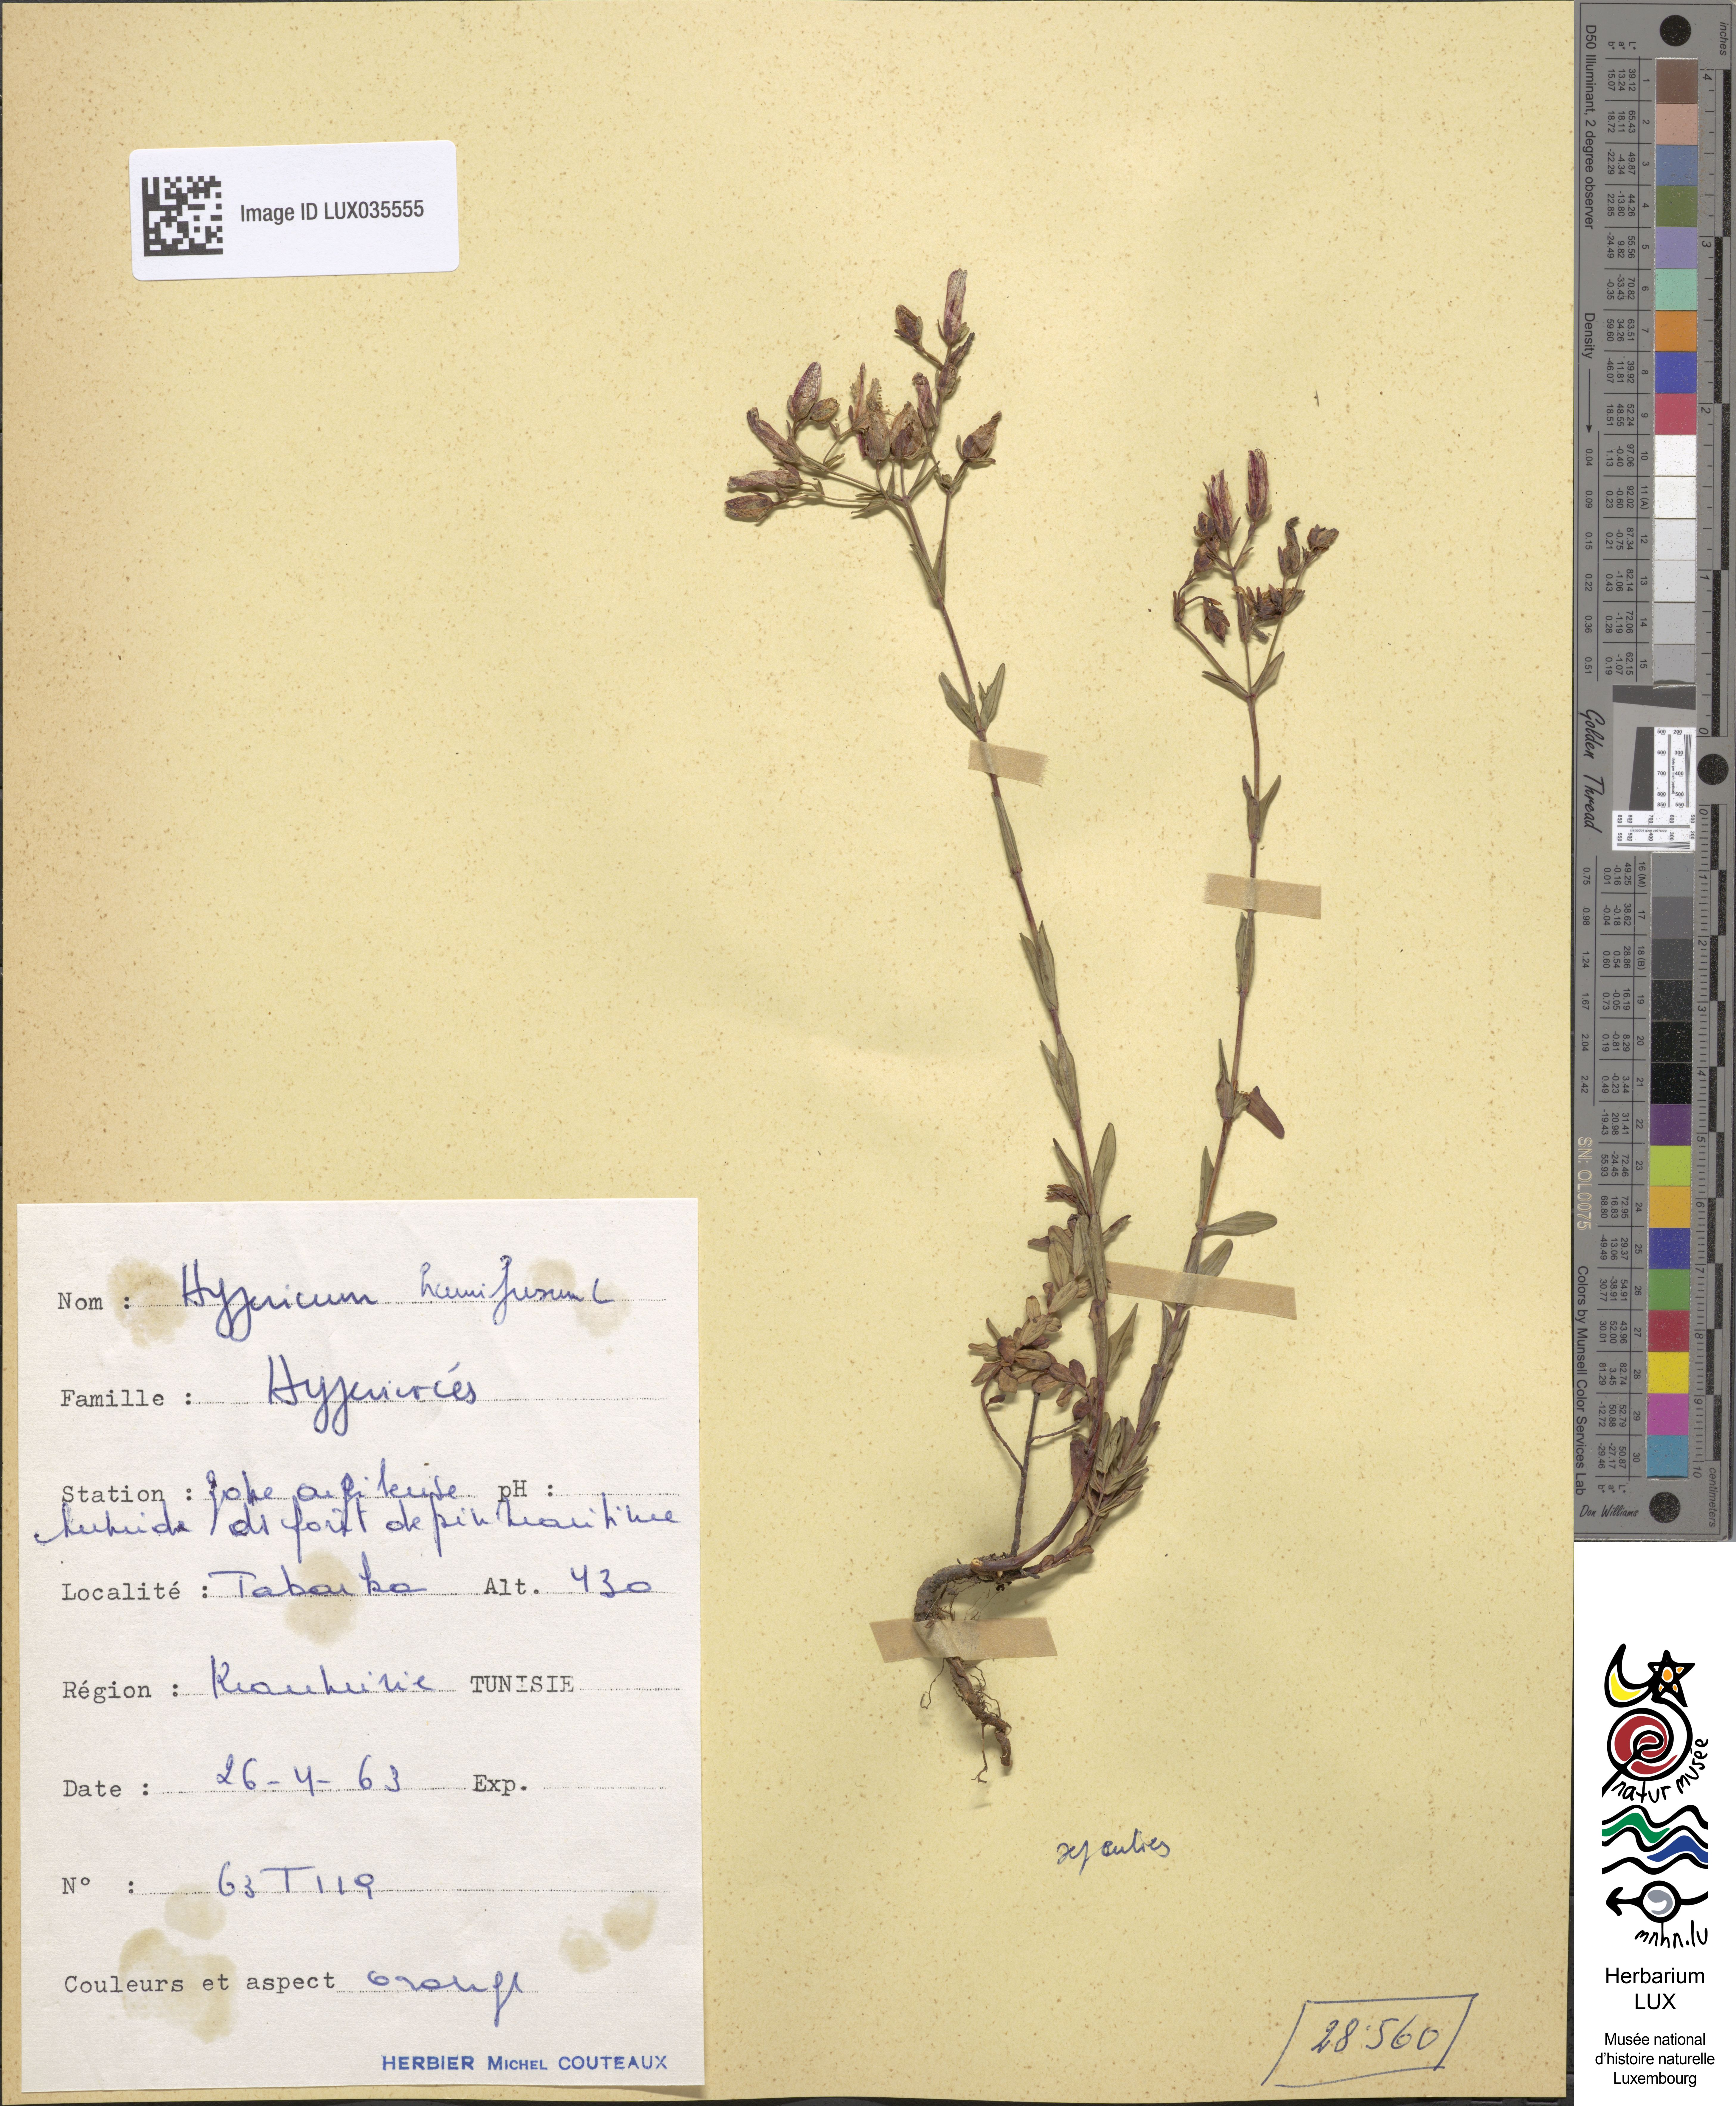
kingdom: Plantae
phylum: Tracheophyta
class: Magnoliopsida
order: Malpighiales
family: Hypericaceae
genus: Hypericum
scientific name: Hypericum humifusum
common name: Trailing st. john's-wort
